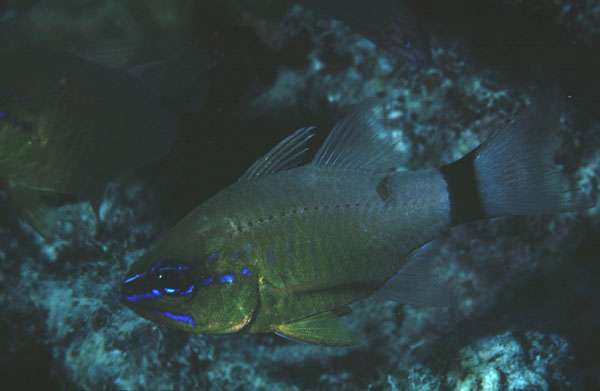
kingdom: Animalia
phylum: Chordata
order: Perciformes
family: Apogonidae
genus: Ostorhinchus
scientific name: Ostorhinchus aureus
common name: Ring-tailed cardinalfish
